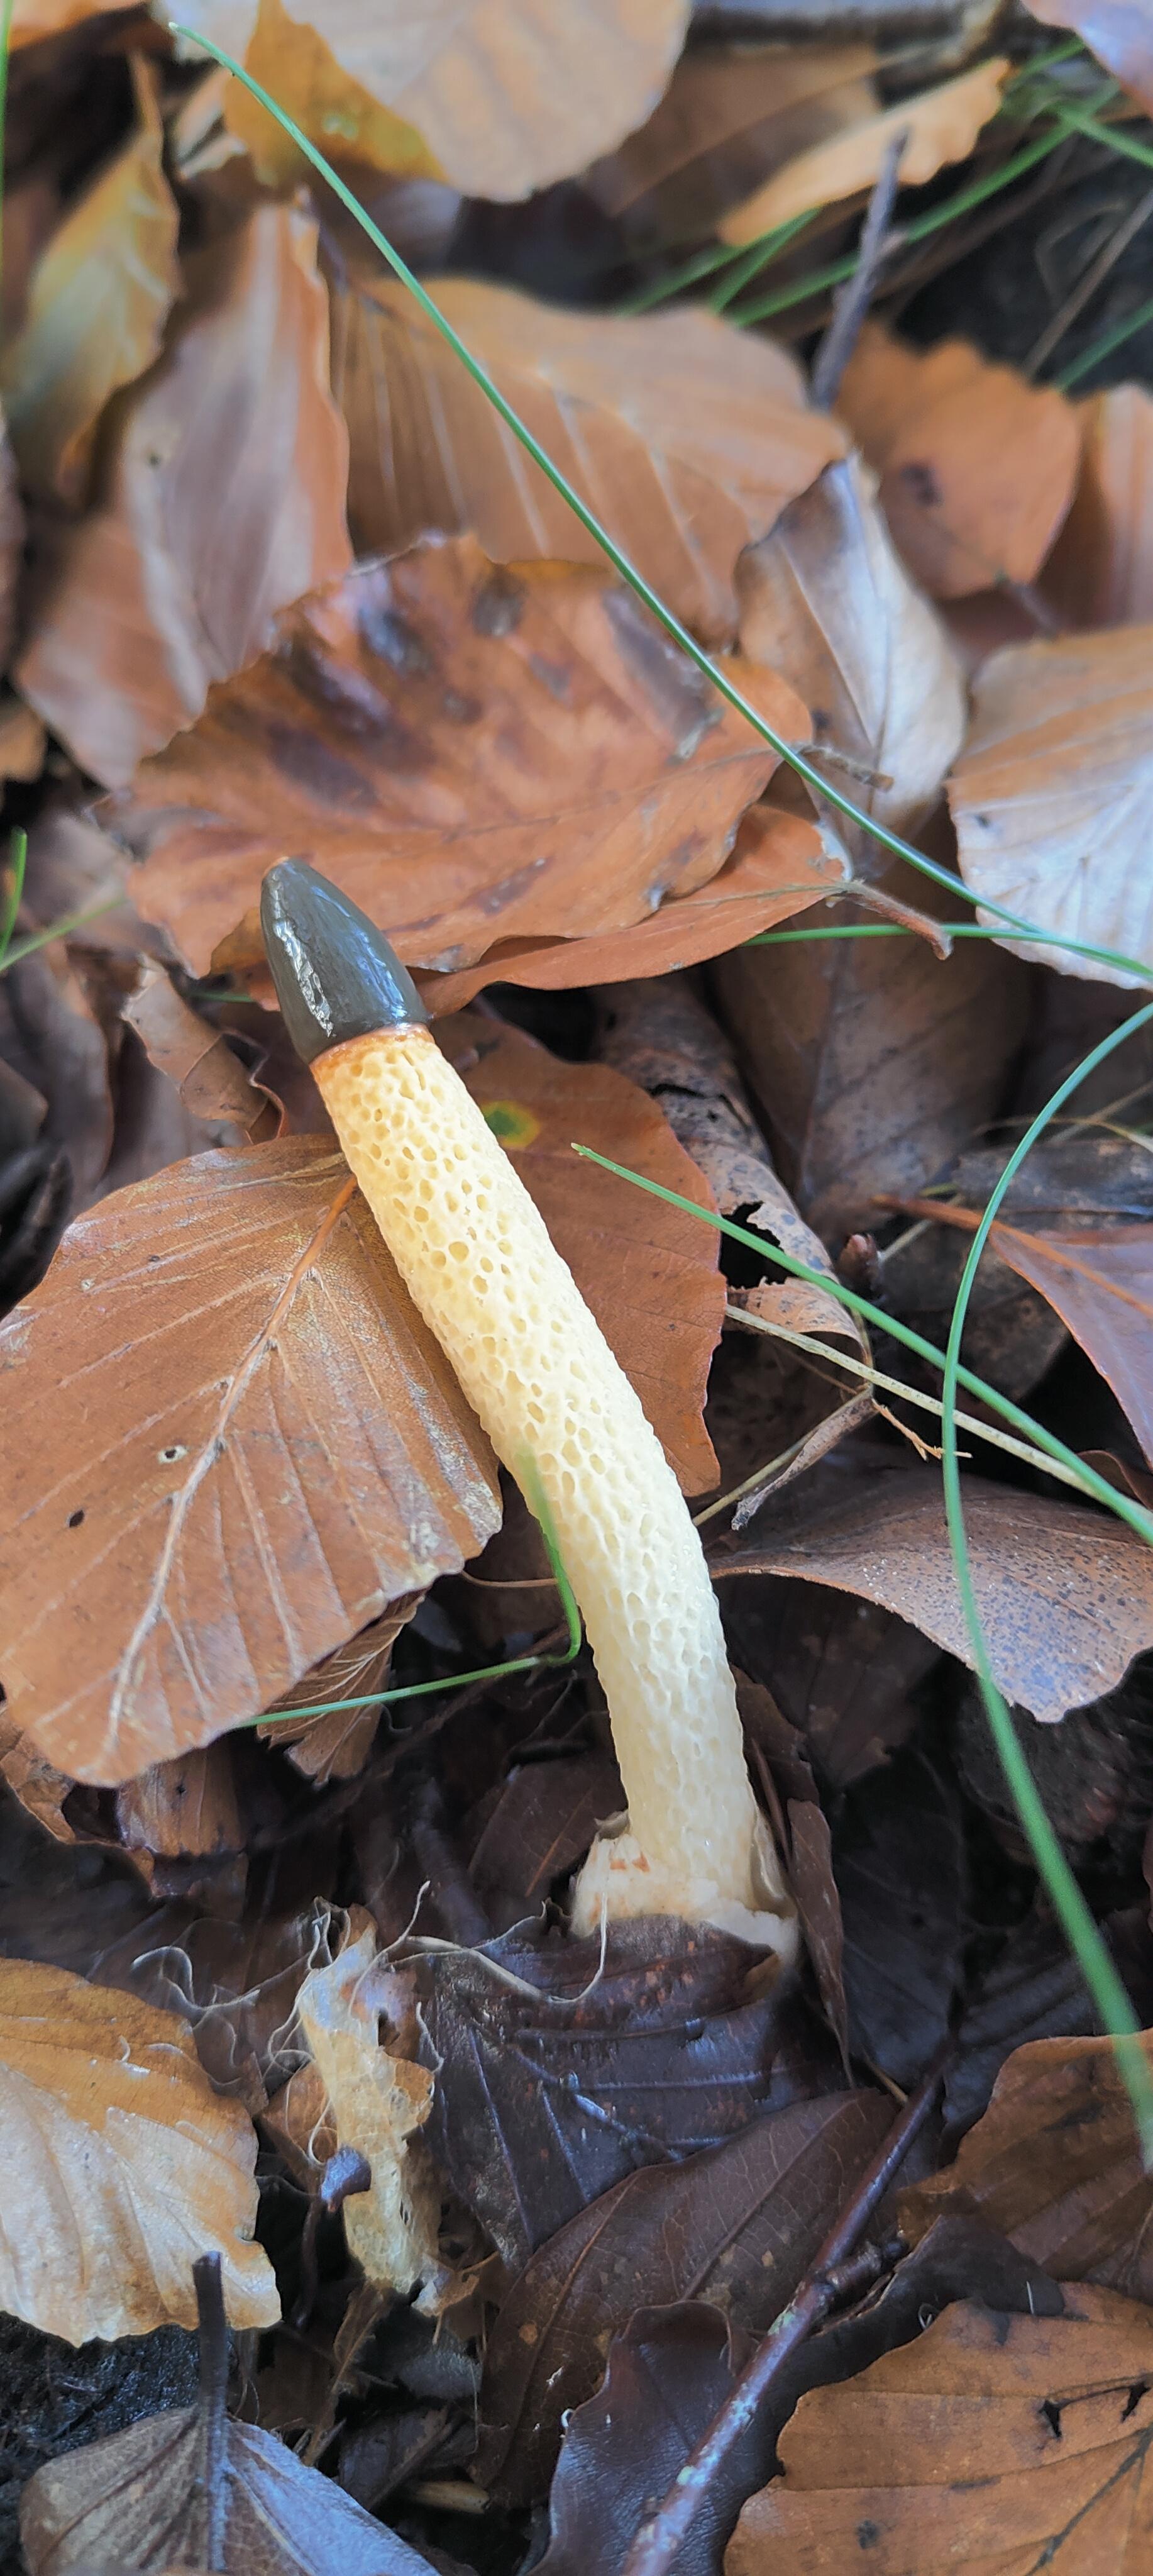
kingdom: Fungi
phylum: Basidiomycota
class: Agaricomycetes
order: Phallales
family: Phallaceae
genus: Mutinus
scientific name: Mutinus caninus
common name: hunde-stinksvamp
